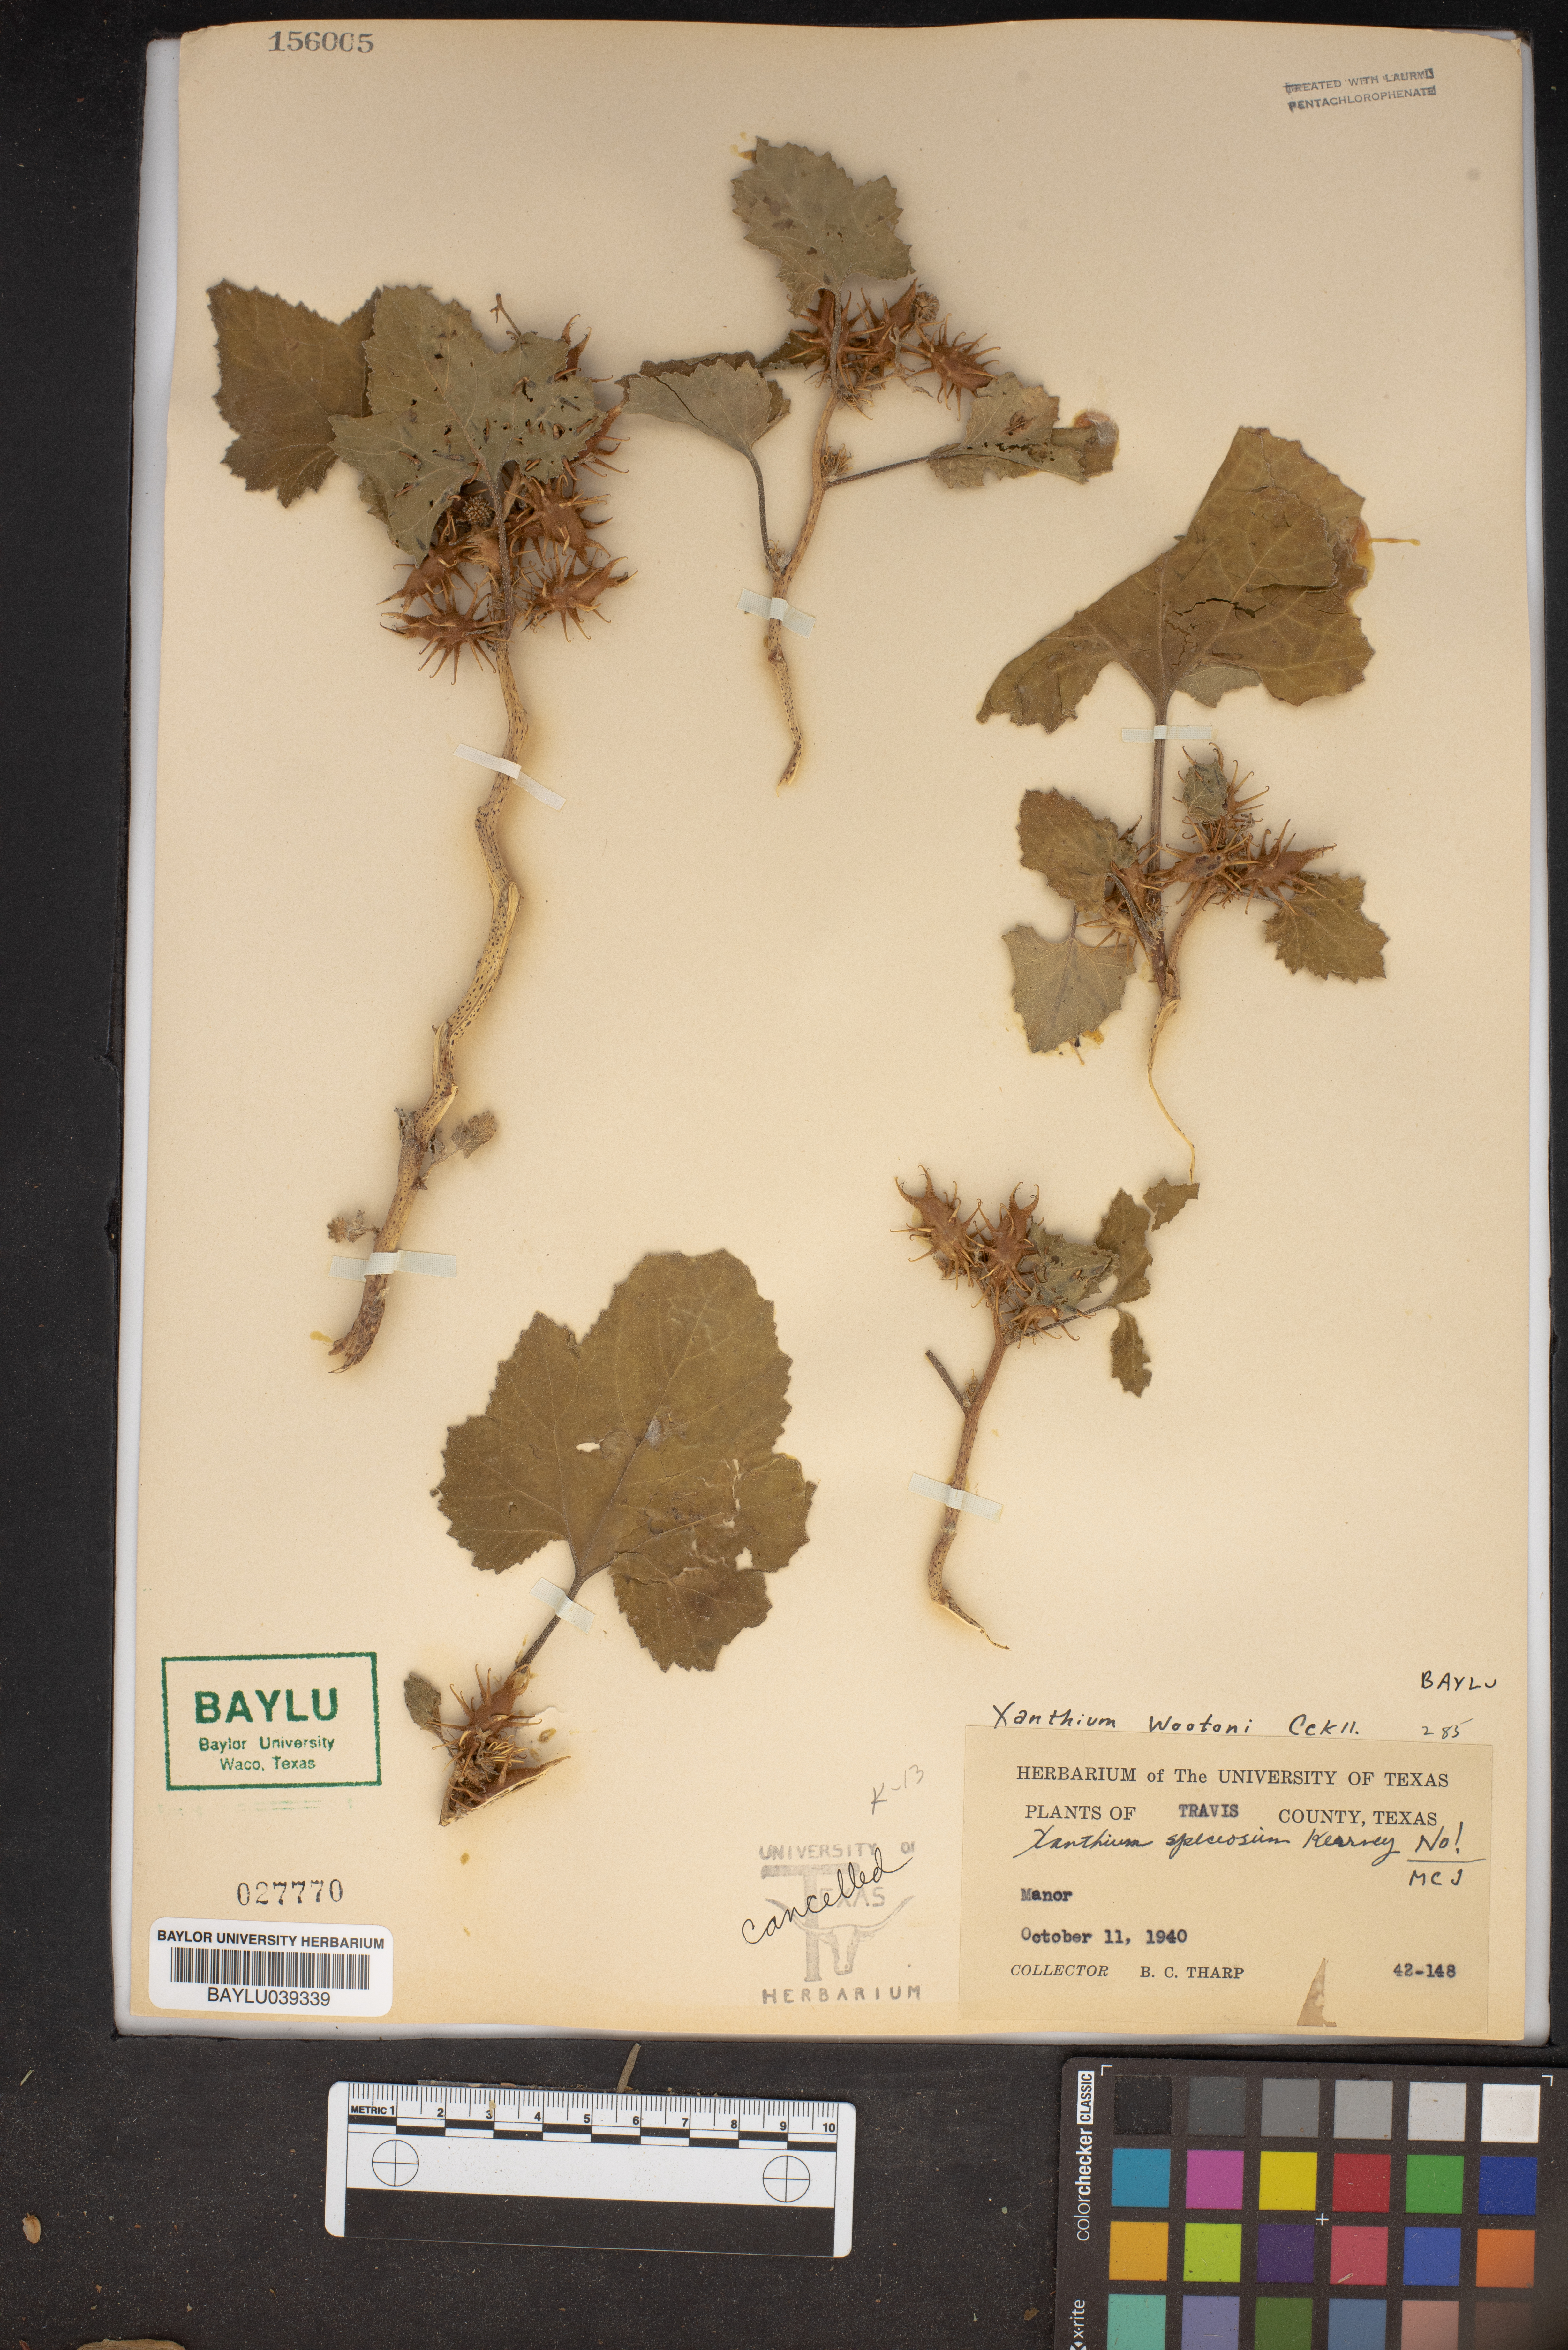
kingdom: Plantae
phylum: Tracheophyta
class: Magnoliopsida
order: Asterales
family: Asteraceae
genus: Xanthium
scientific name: Xanthium orientale
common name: Californian burr
